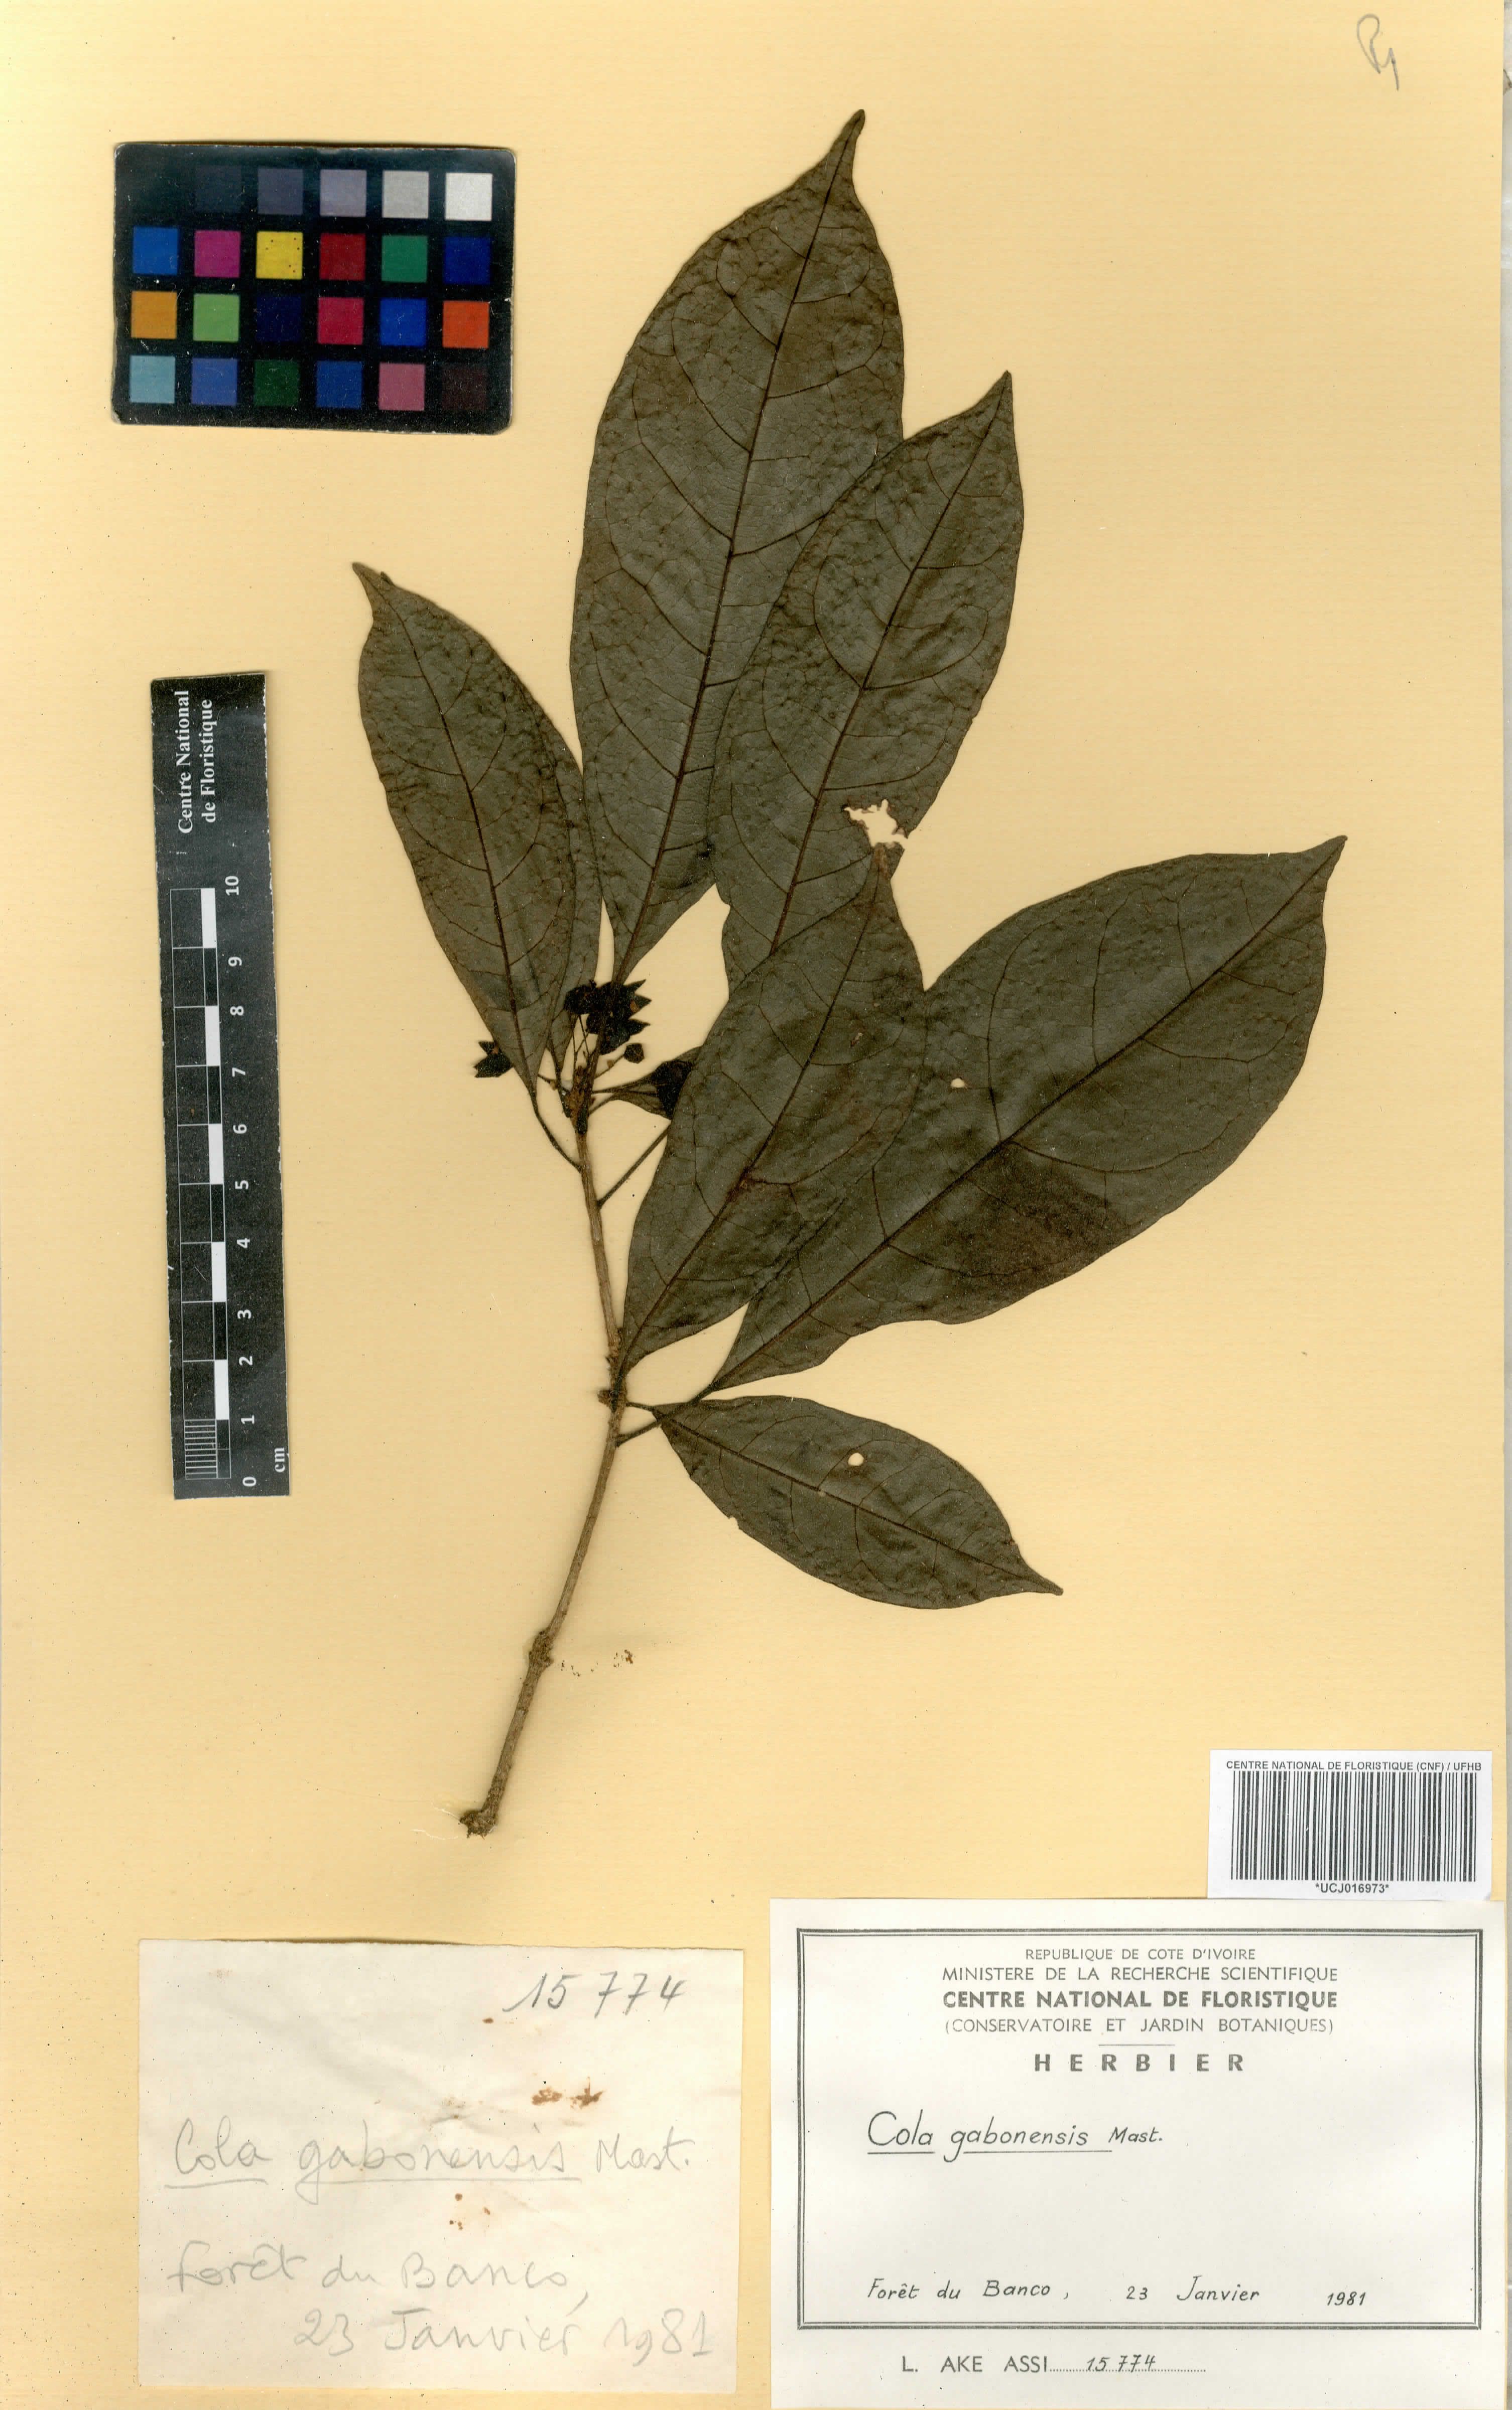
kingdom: Plantae
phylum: Tracheophyta
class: Magnoliopsida
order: Malvales
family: Malvaceae
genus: Cola
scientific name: Cola gabonensis
